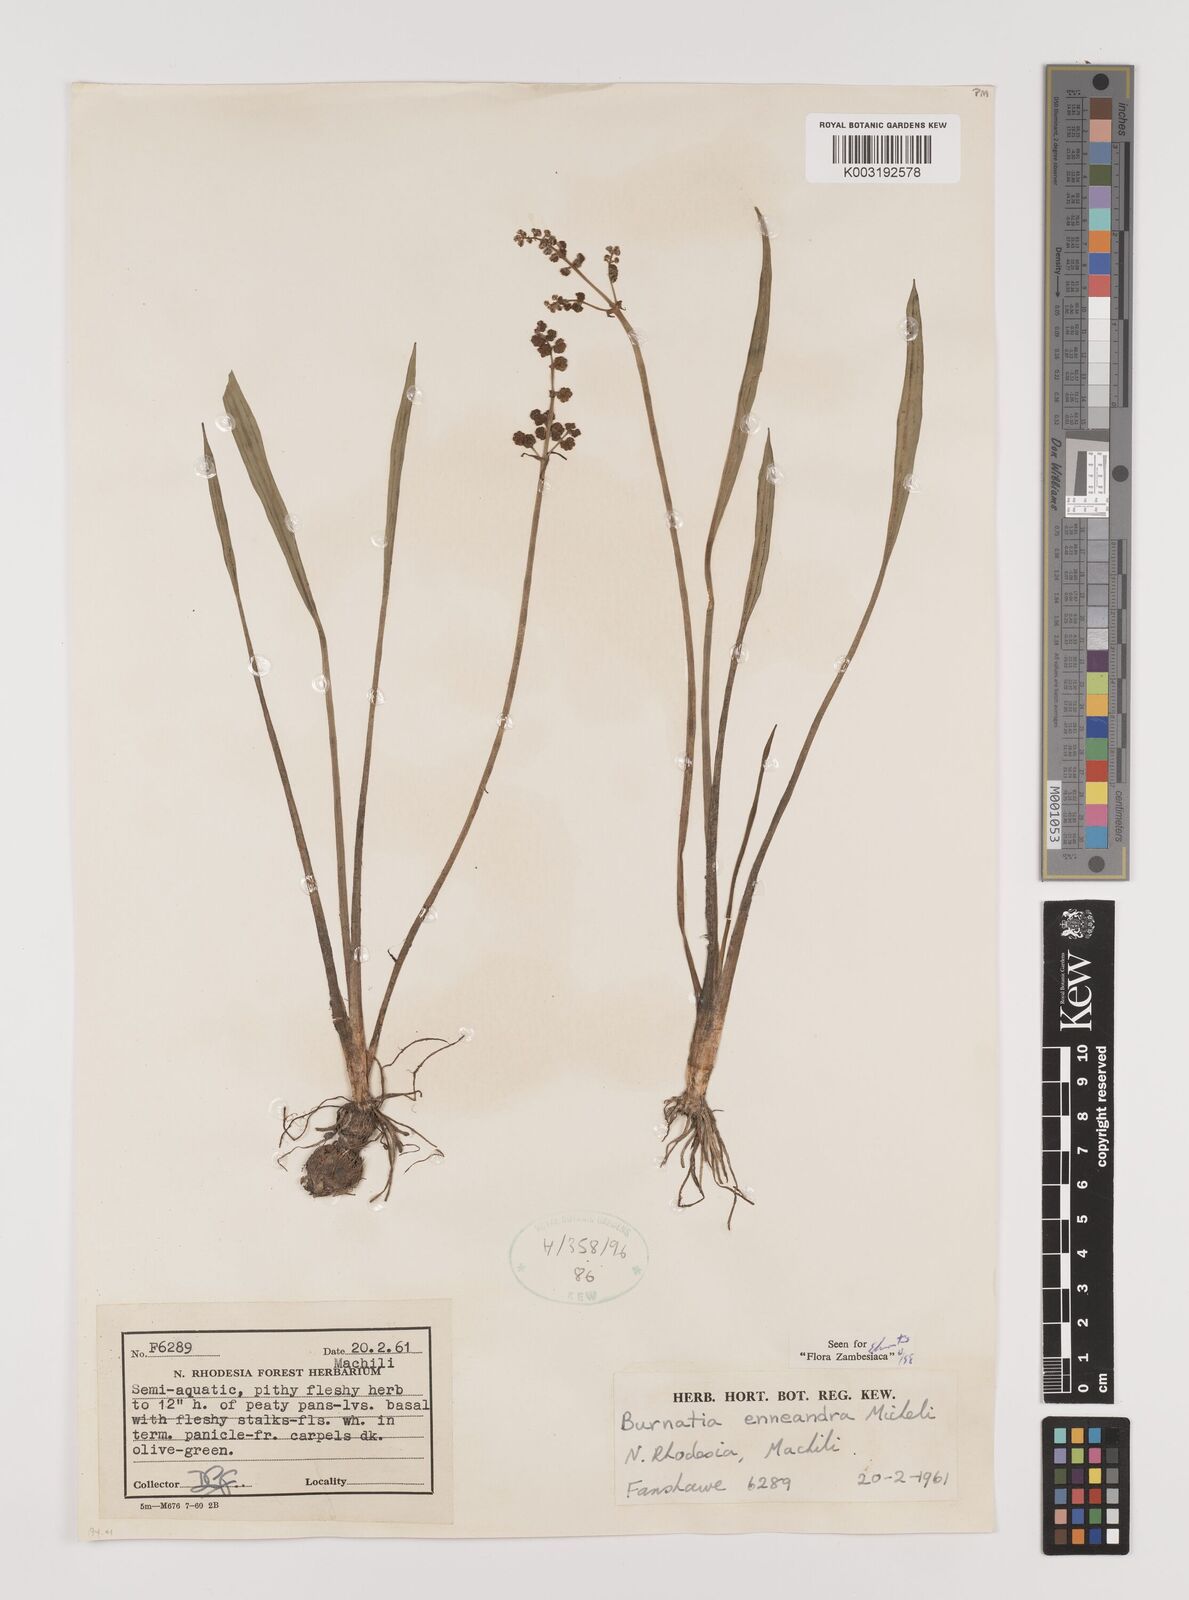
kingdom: Plantae
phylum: Tracheophyta
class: Liliopsida
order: Alismatales
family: Alismataceae
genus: Burnatia
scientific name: Burnatia enneandra
